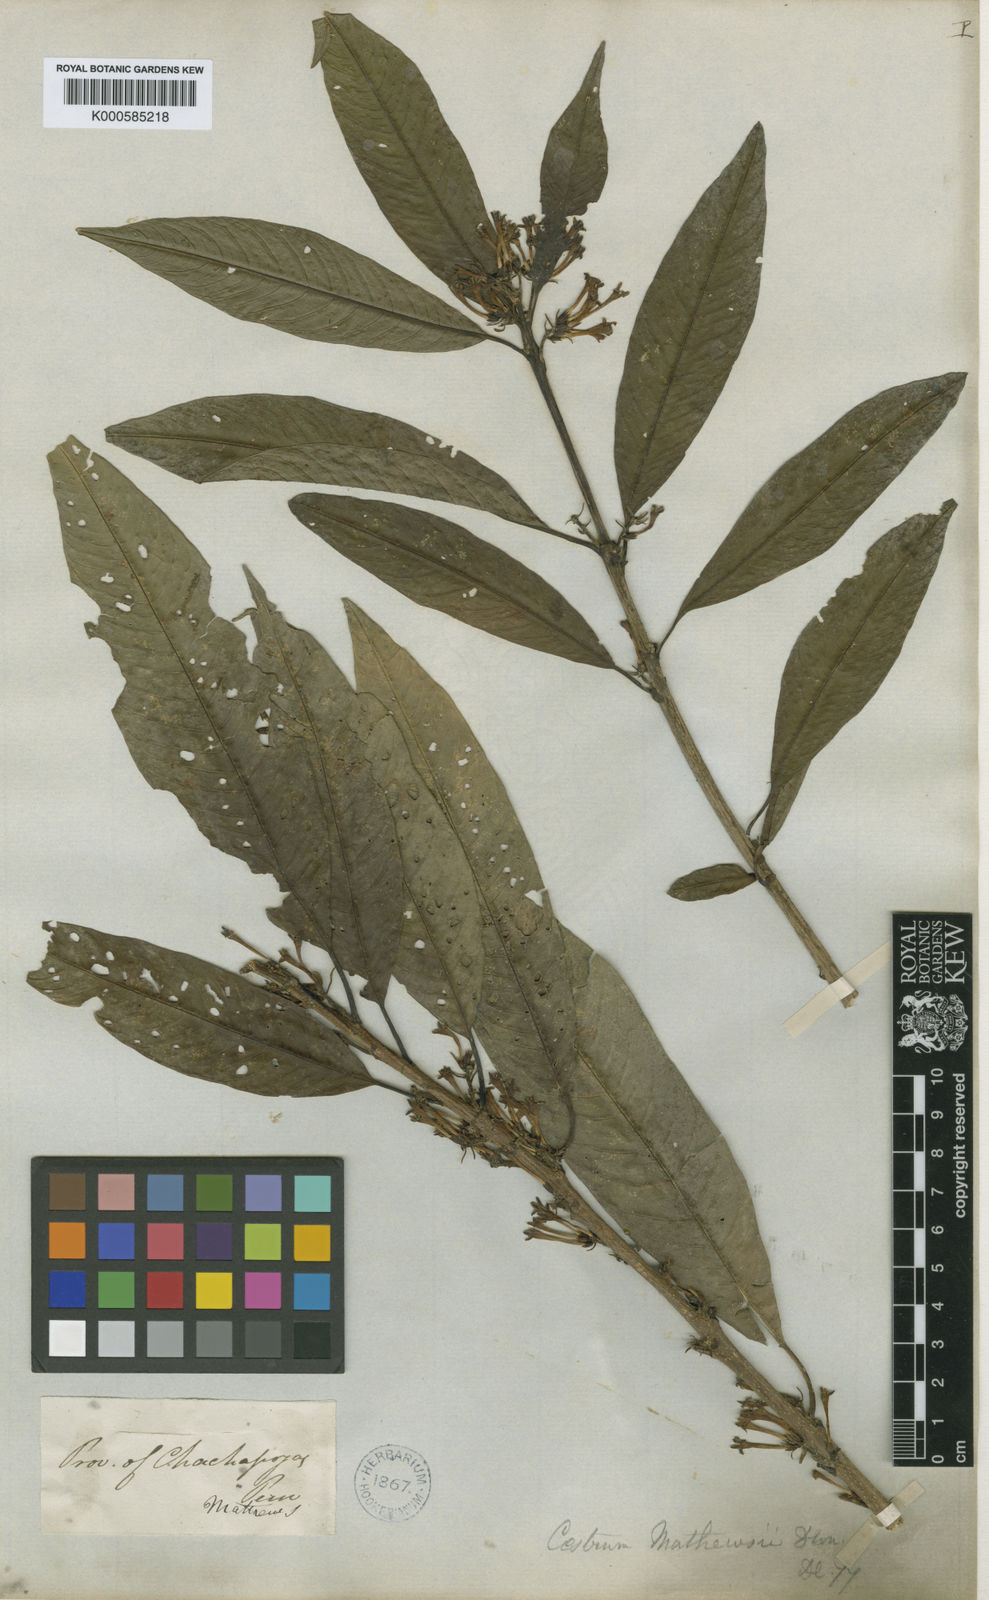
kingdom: Plantae
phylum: Tracheophyta
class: Magnoliopsida
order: Solanales
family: Solanaceae
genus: Cestrum
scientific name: Cestrum racemosum
